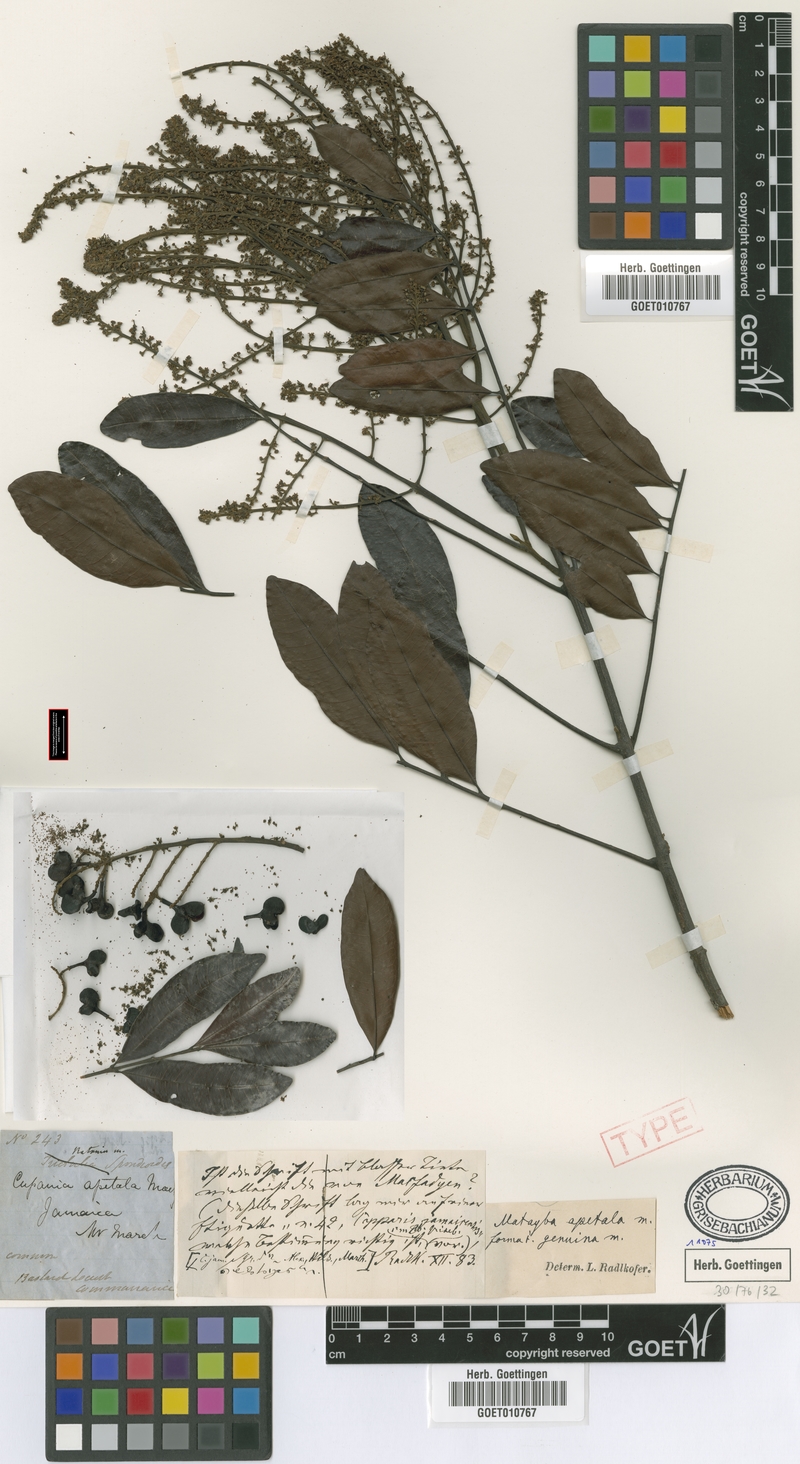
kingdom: Plantae
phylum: Tracheophyta
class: Magnoliopsida
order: Sapindales
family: Sapindaceae
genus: Matayba
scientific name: Matayba apetala
